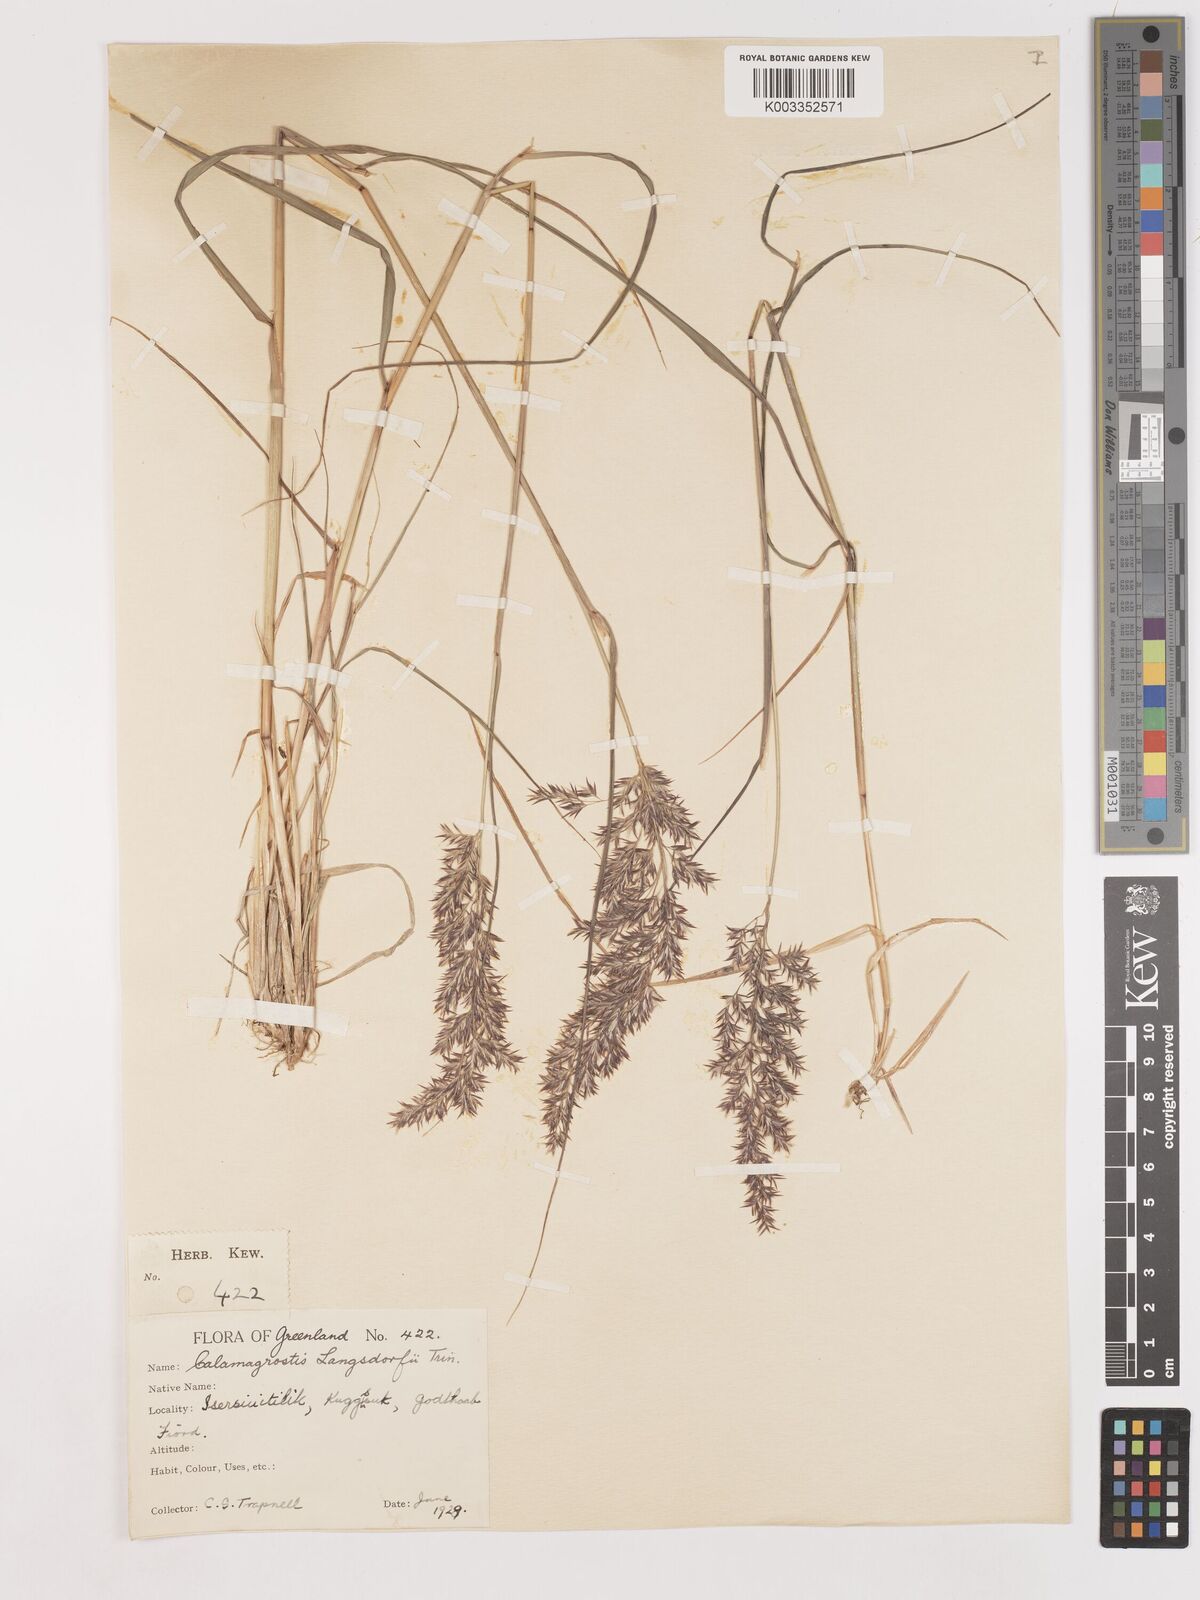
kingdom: Plantae
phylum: Tracheophyta
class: Liliopsida
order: Poales
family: Poaceae
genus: Calamagrostis
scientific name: Calamagrostis canadensis
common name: Canada bluejoint
